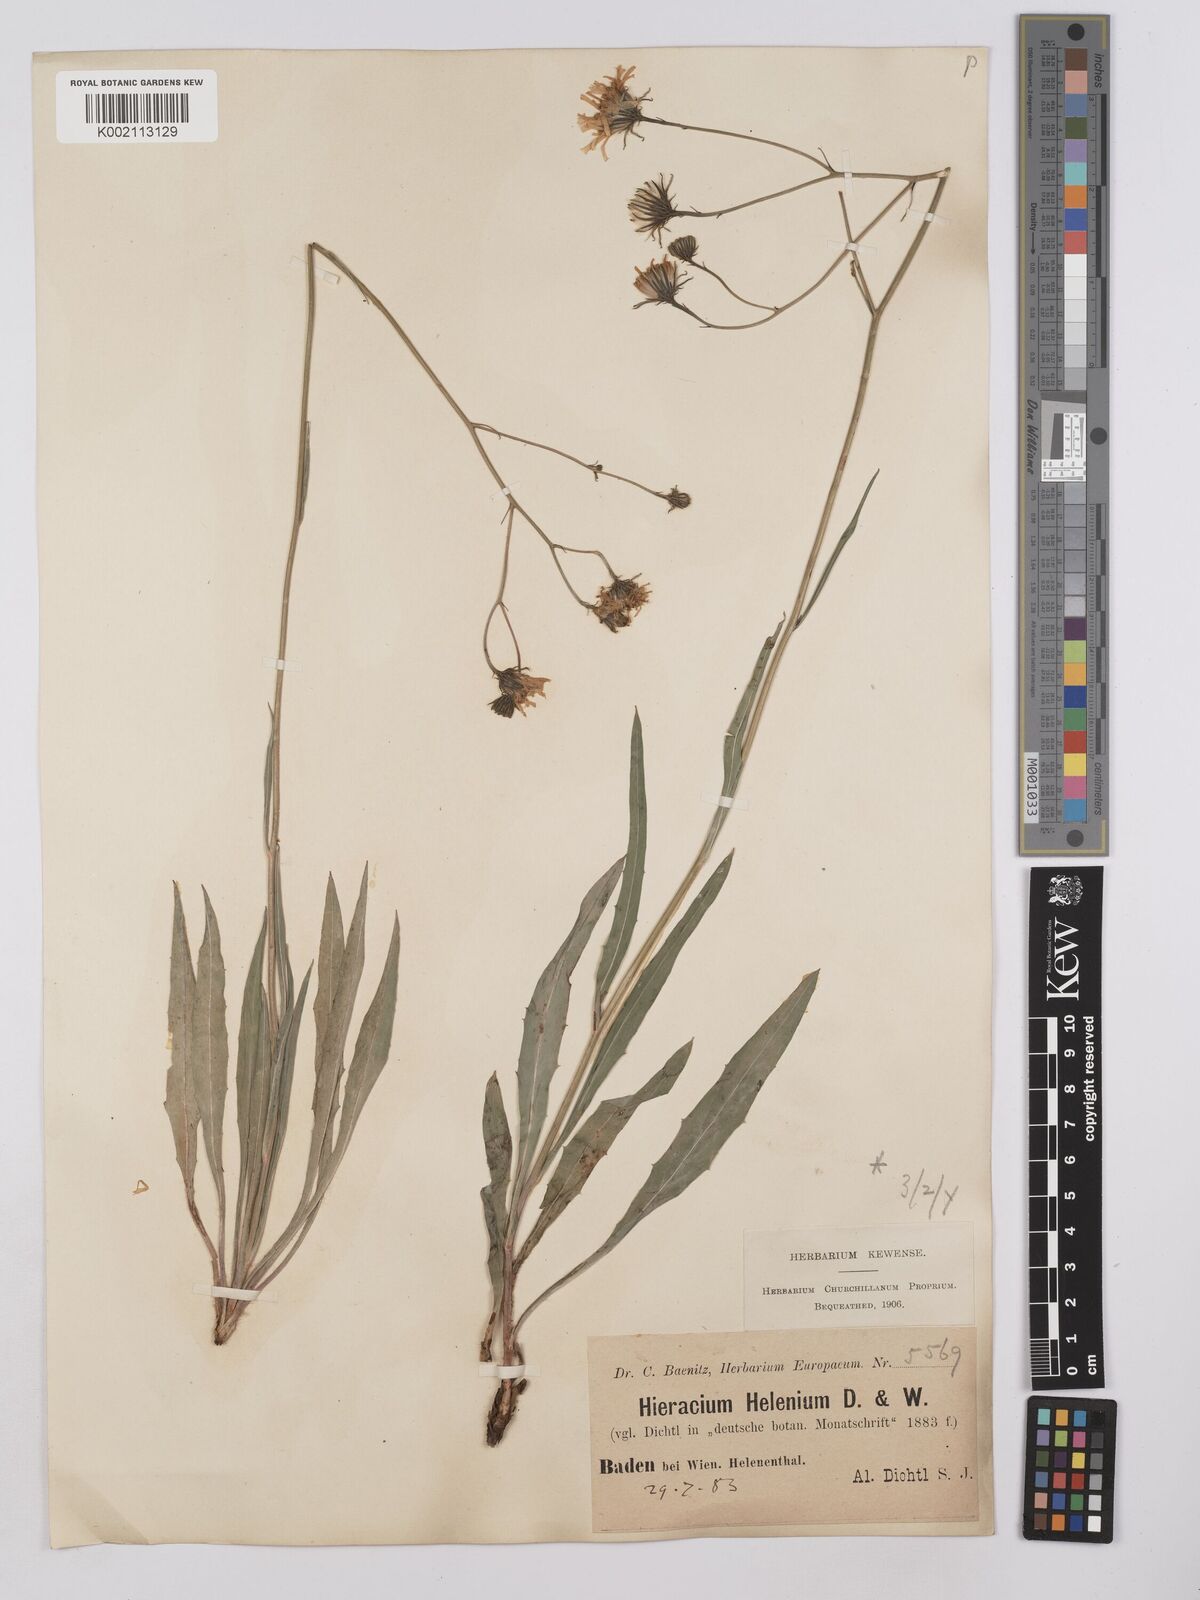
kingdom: Plantae
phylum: Tracheophyta
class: Magnoliopsida
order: Asterales
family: Asteraceae
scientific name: Asteraceae
